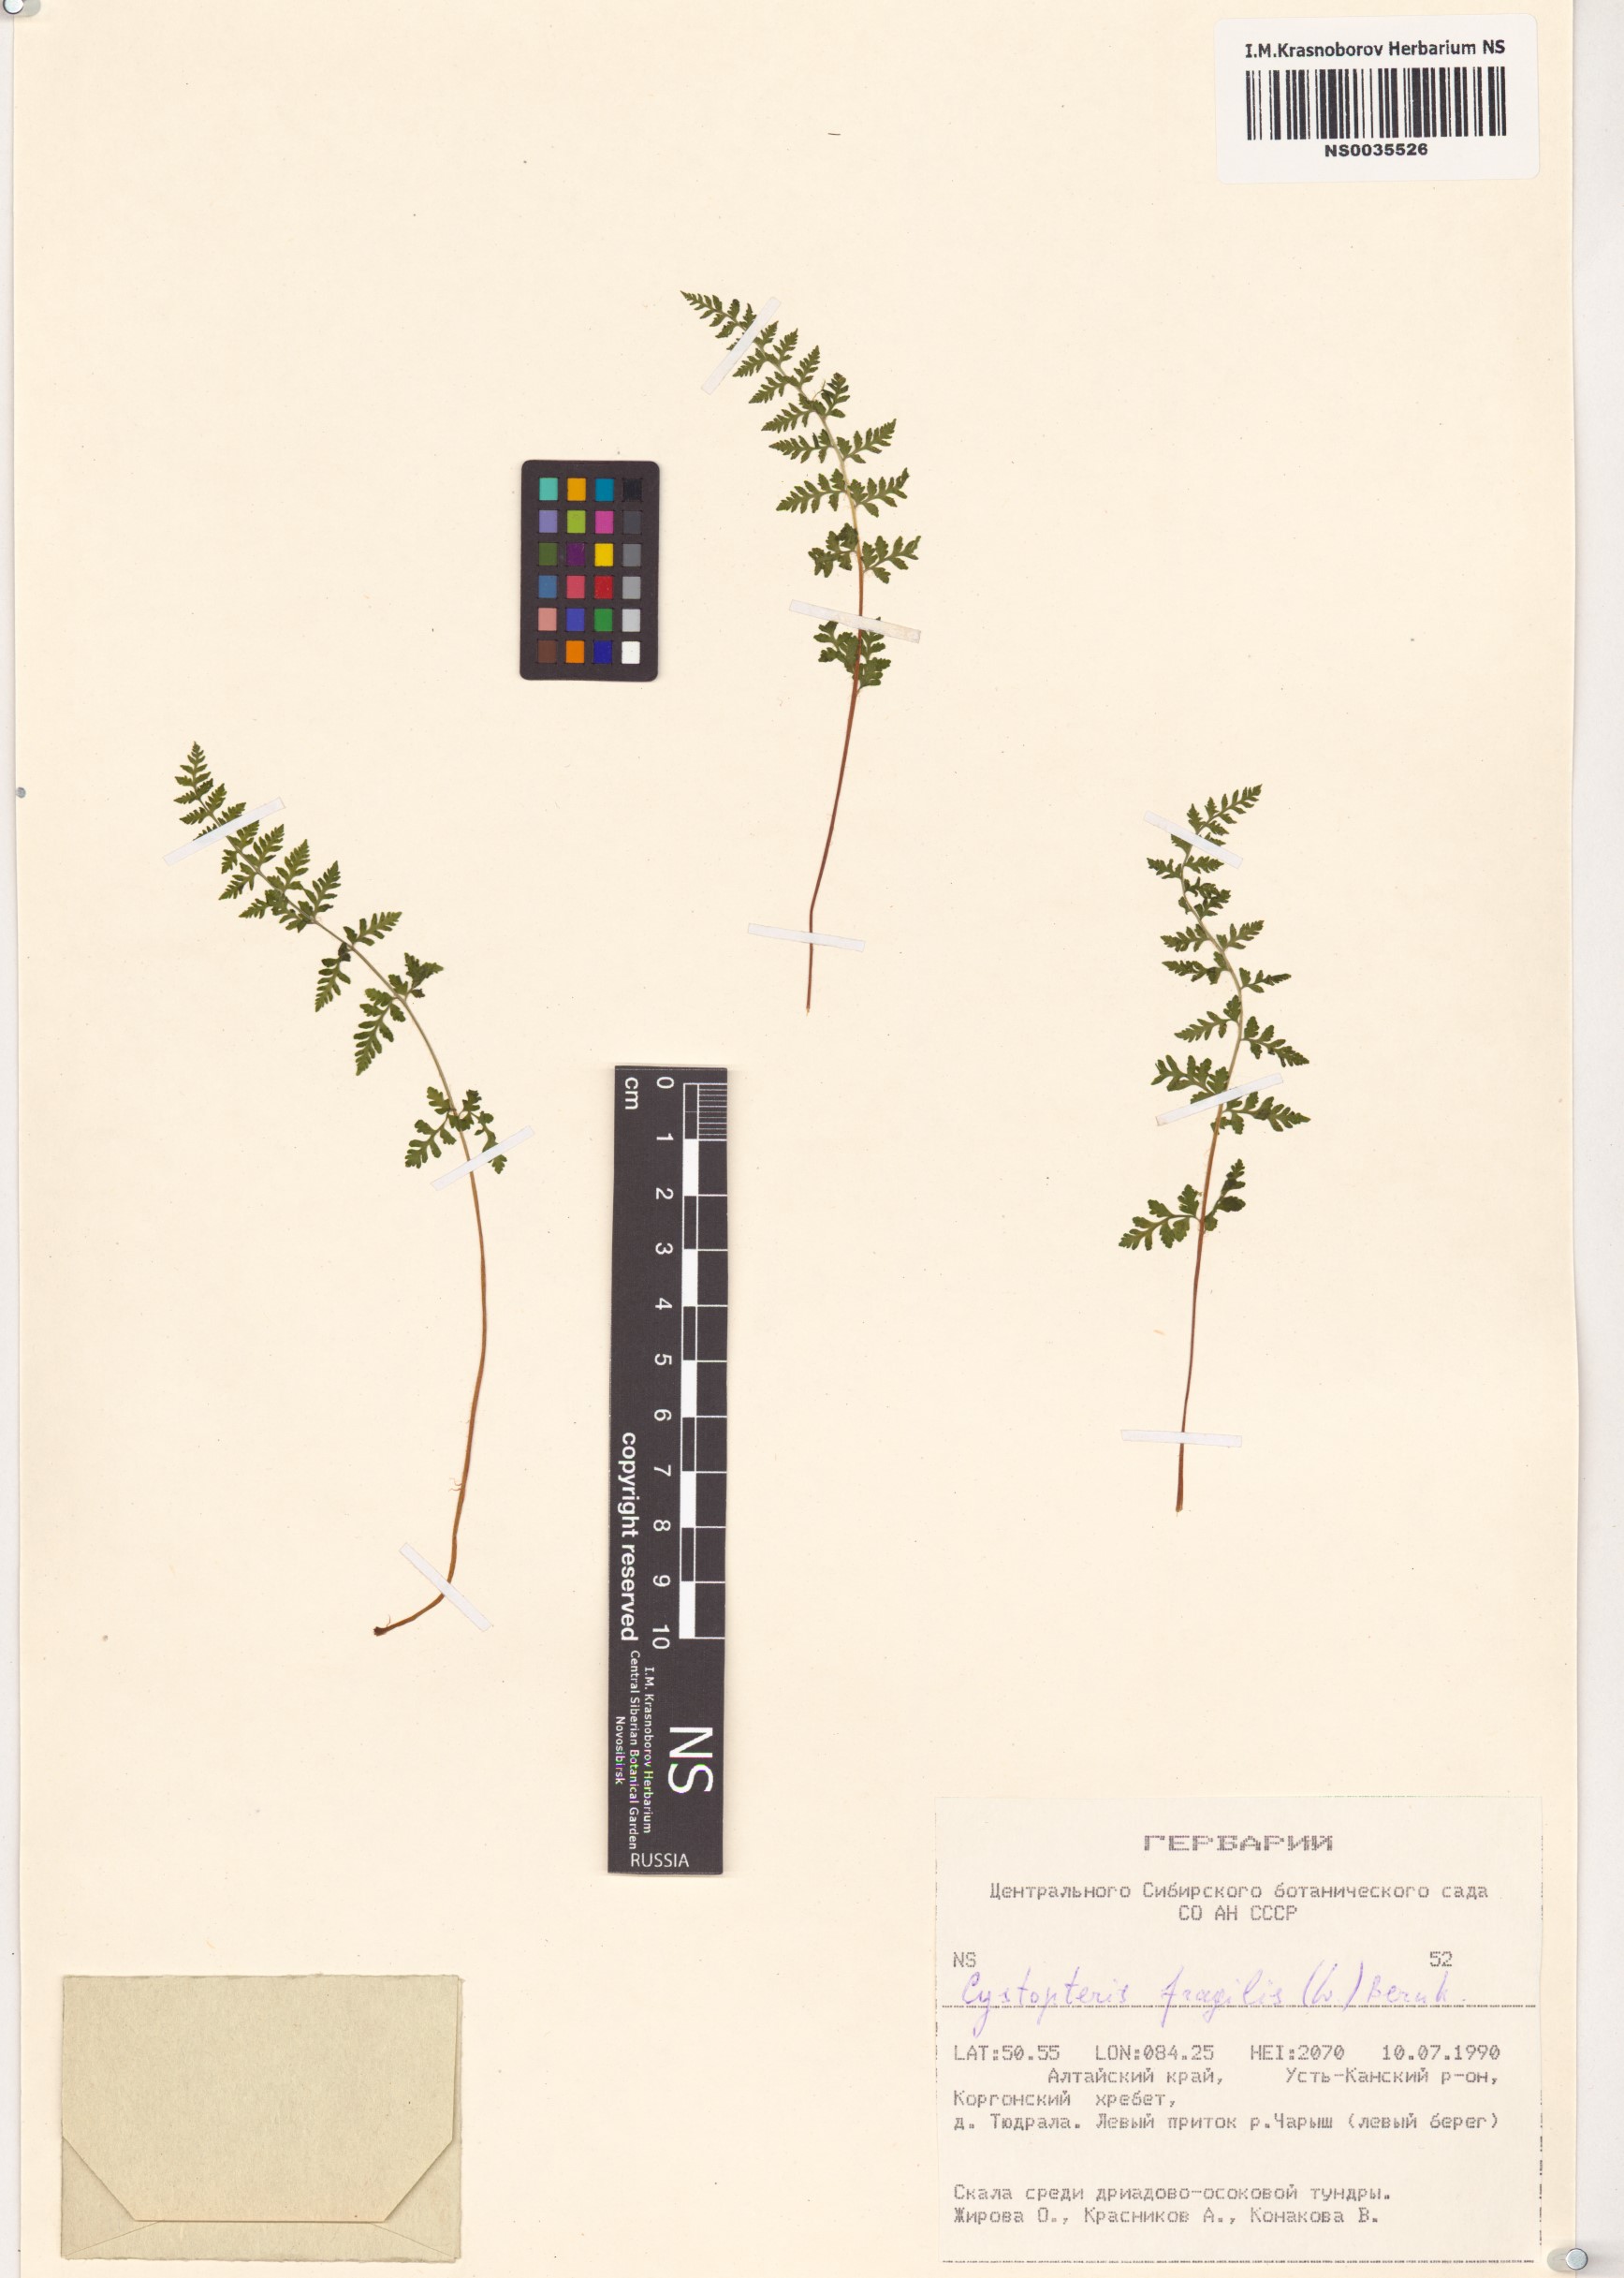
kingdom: Plantae
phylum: Tracheophyta
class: Polypodiopsida
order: Polypodiales
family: Cystopteridaceae
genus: Cystopteris
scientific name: Cystopteris fragilis
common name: Brittle bladder fern
